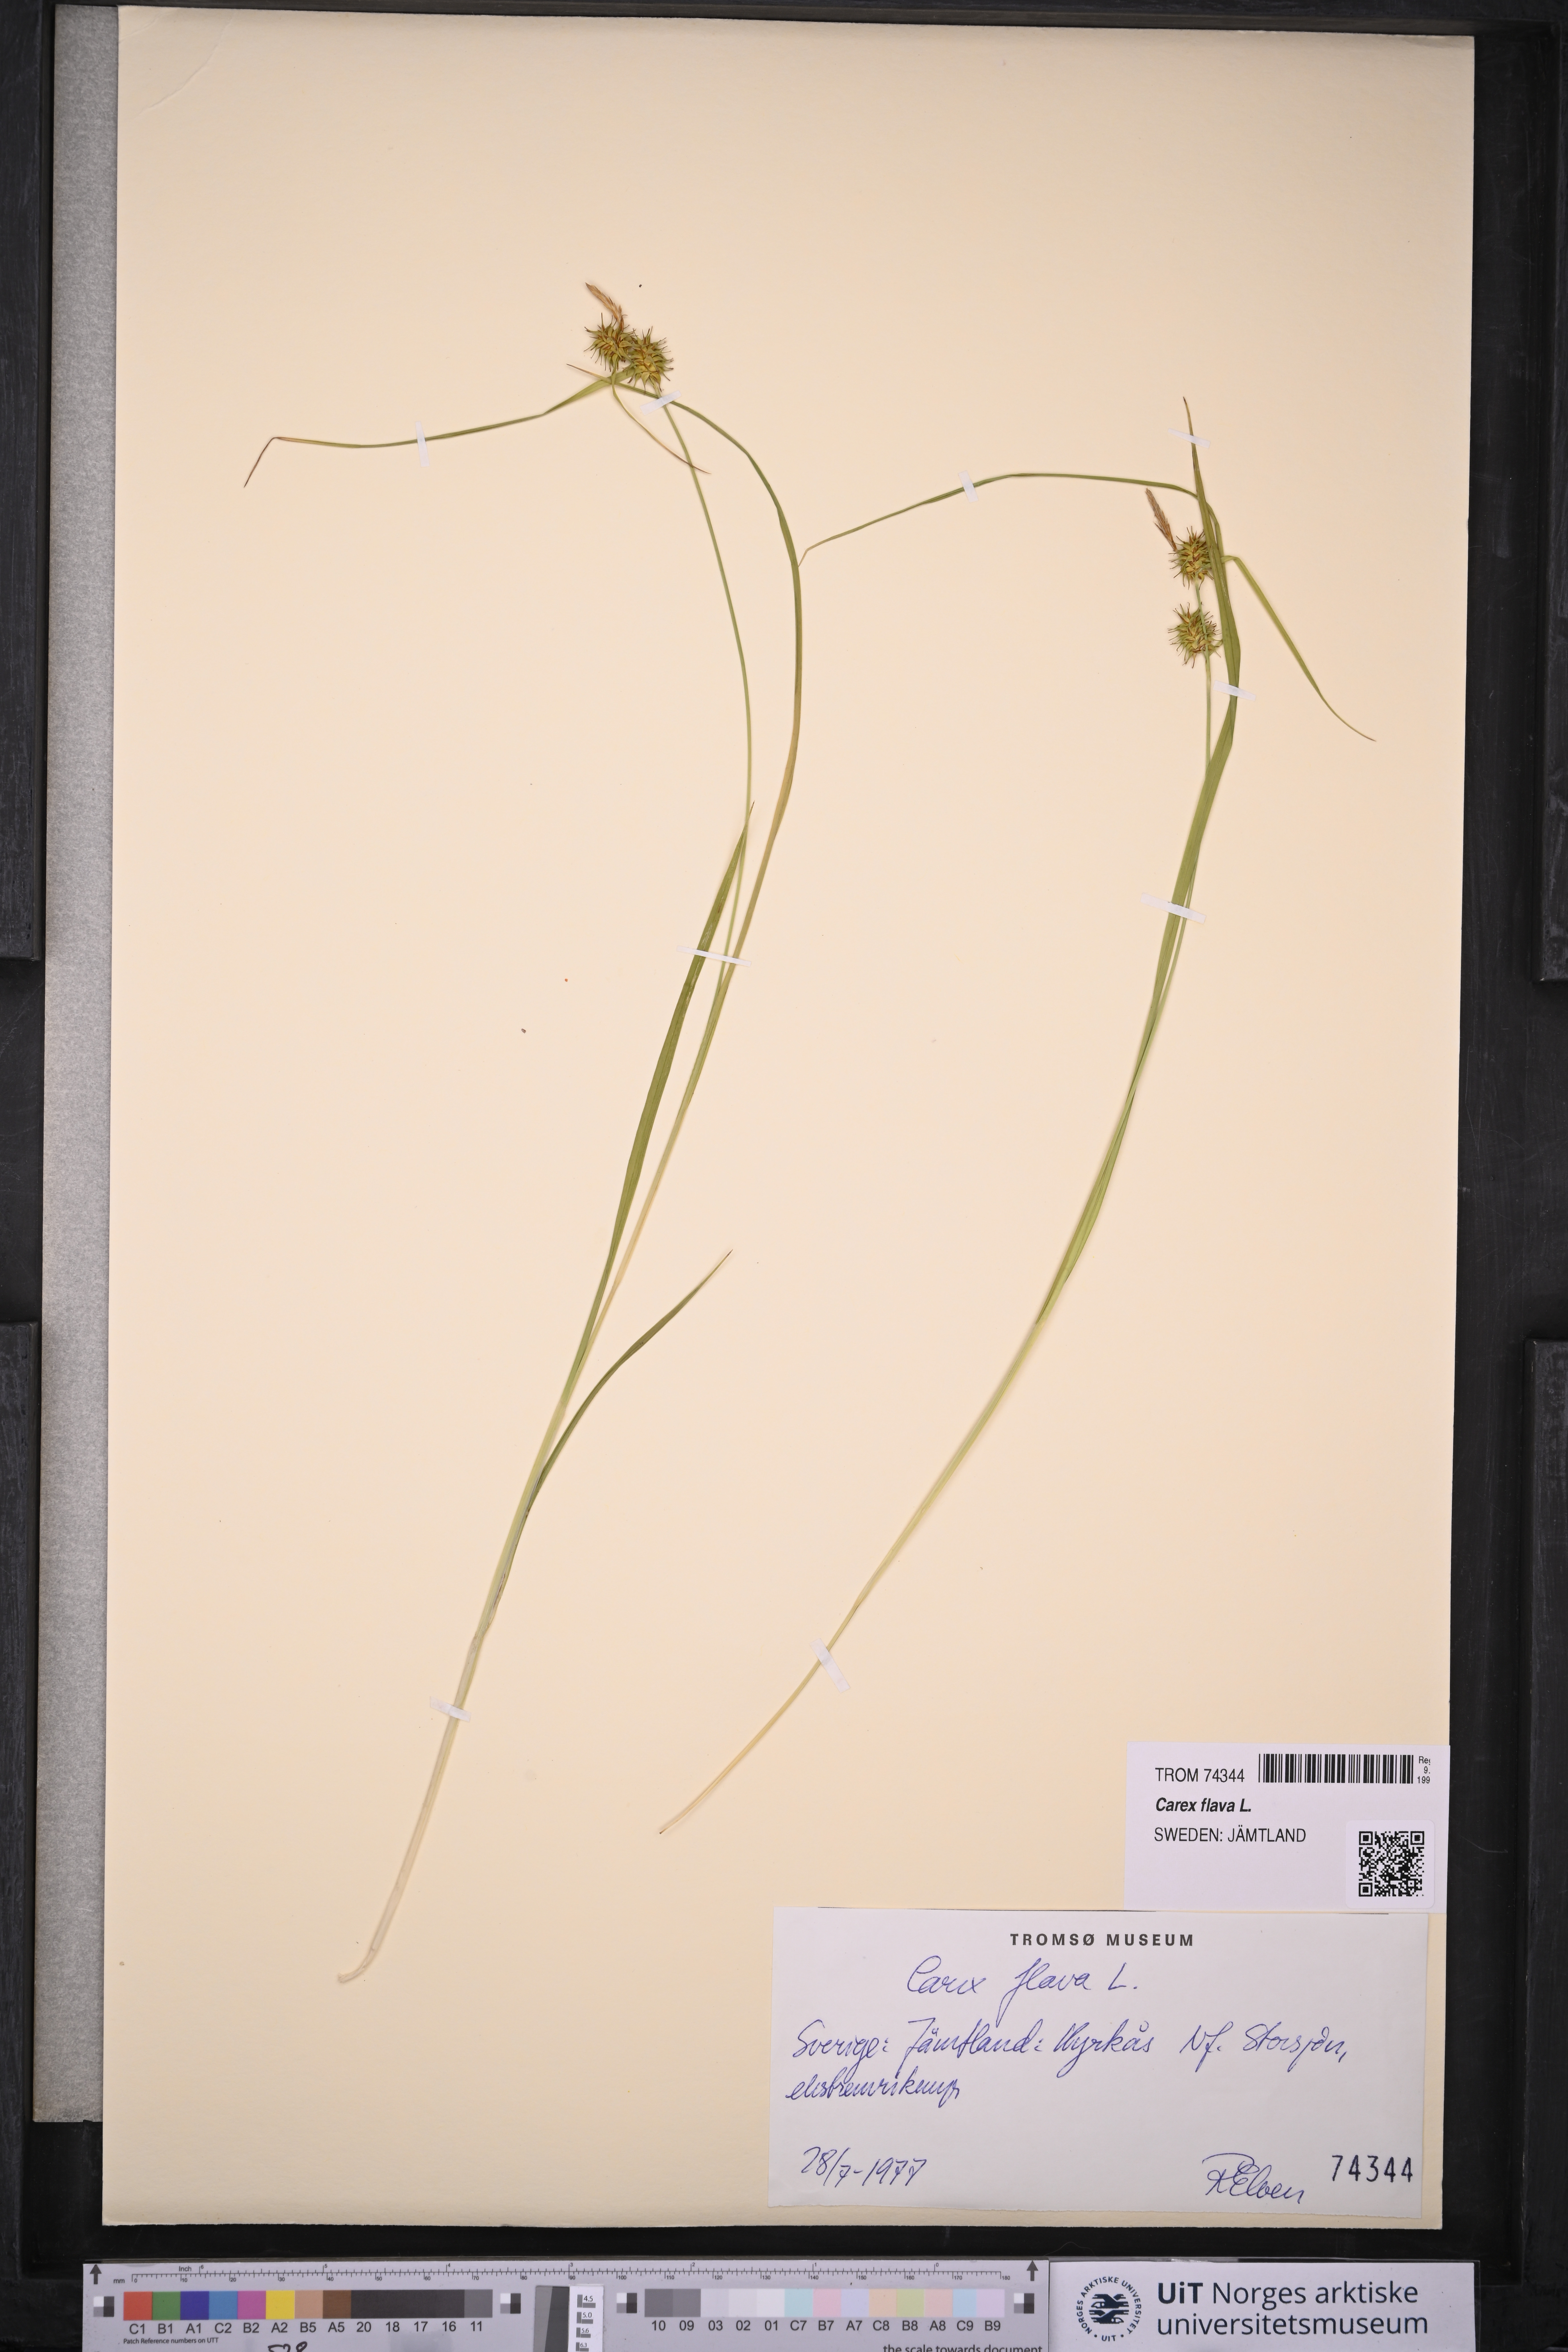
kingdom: Plantae
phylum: Tracheophyta
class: Liliopsida
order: Poales
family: Cyperaceae
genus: Carex
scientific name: Carex flava
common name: Large yellow-sedge
